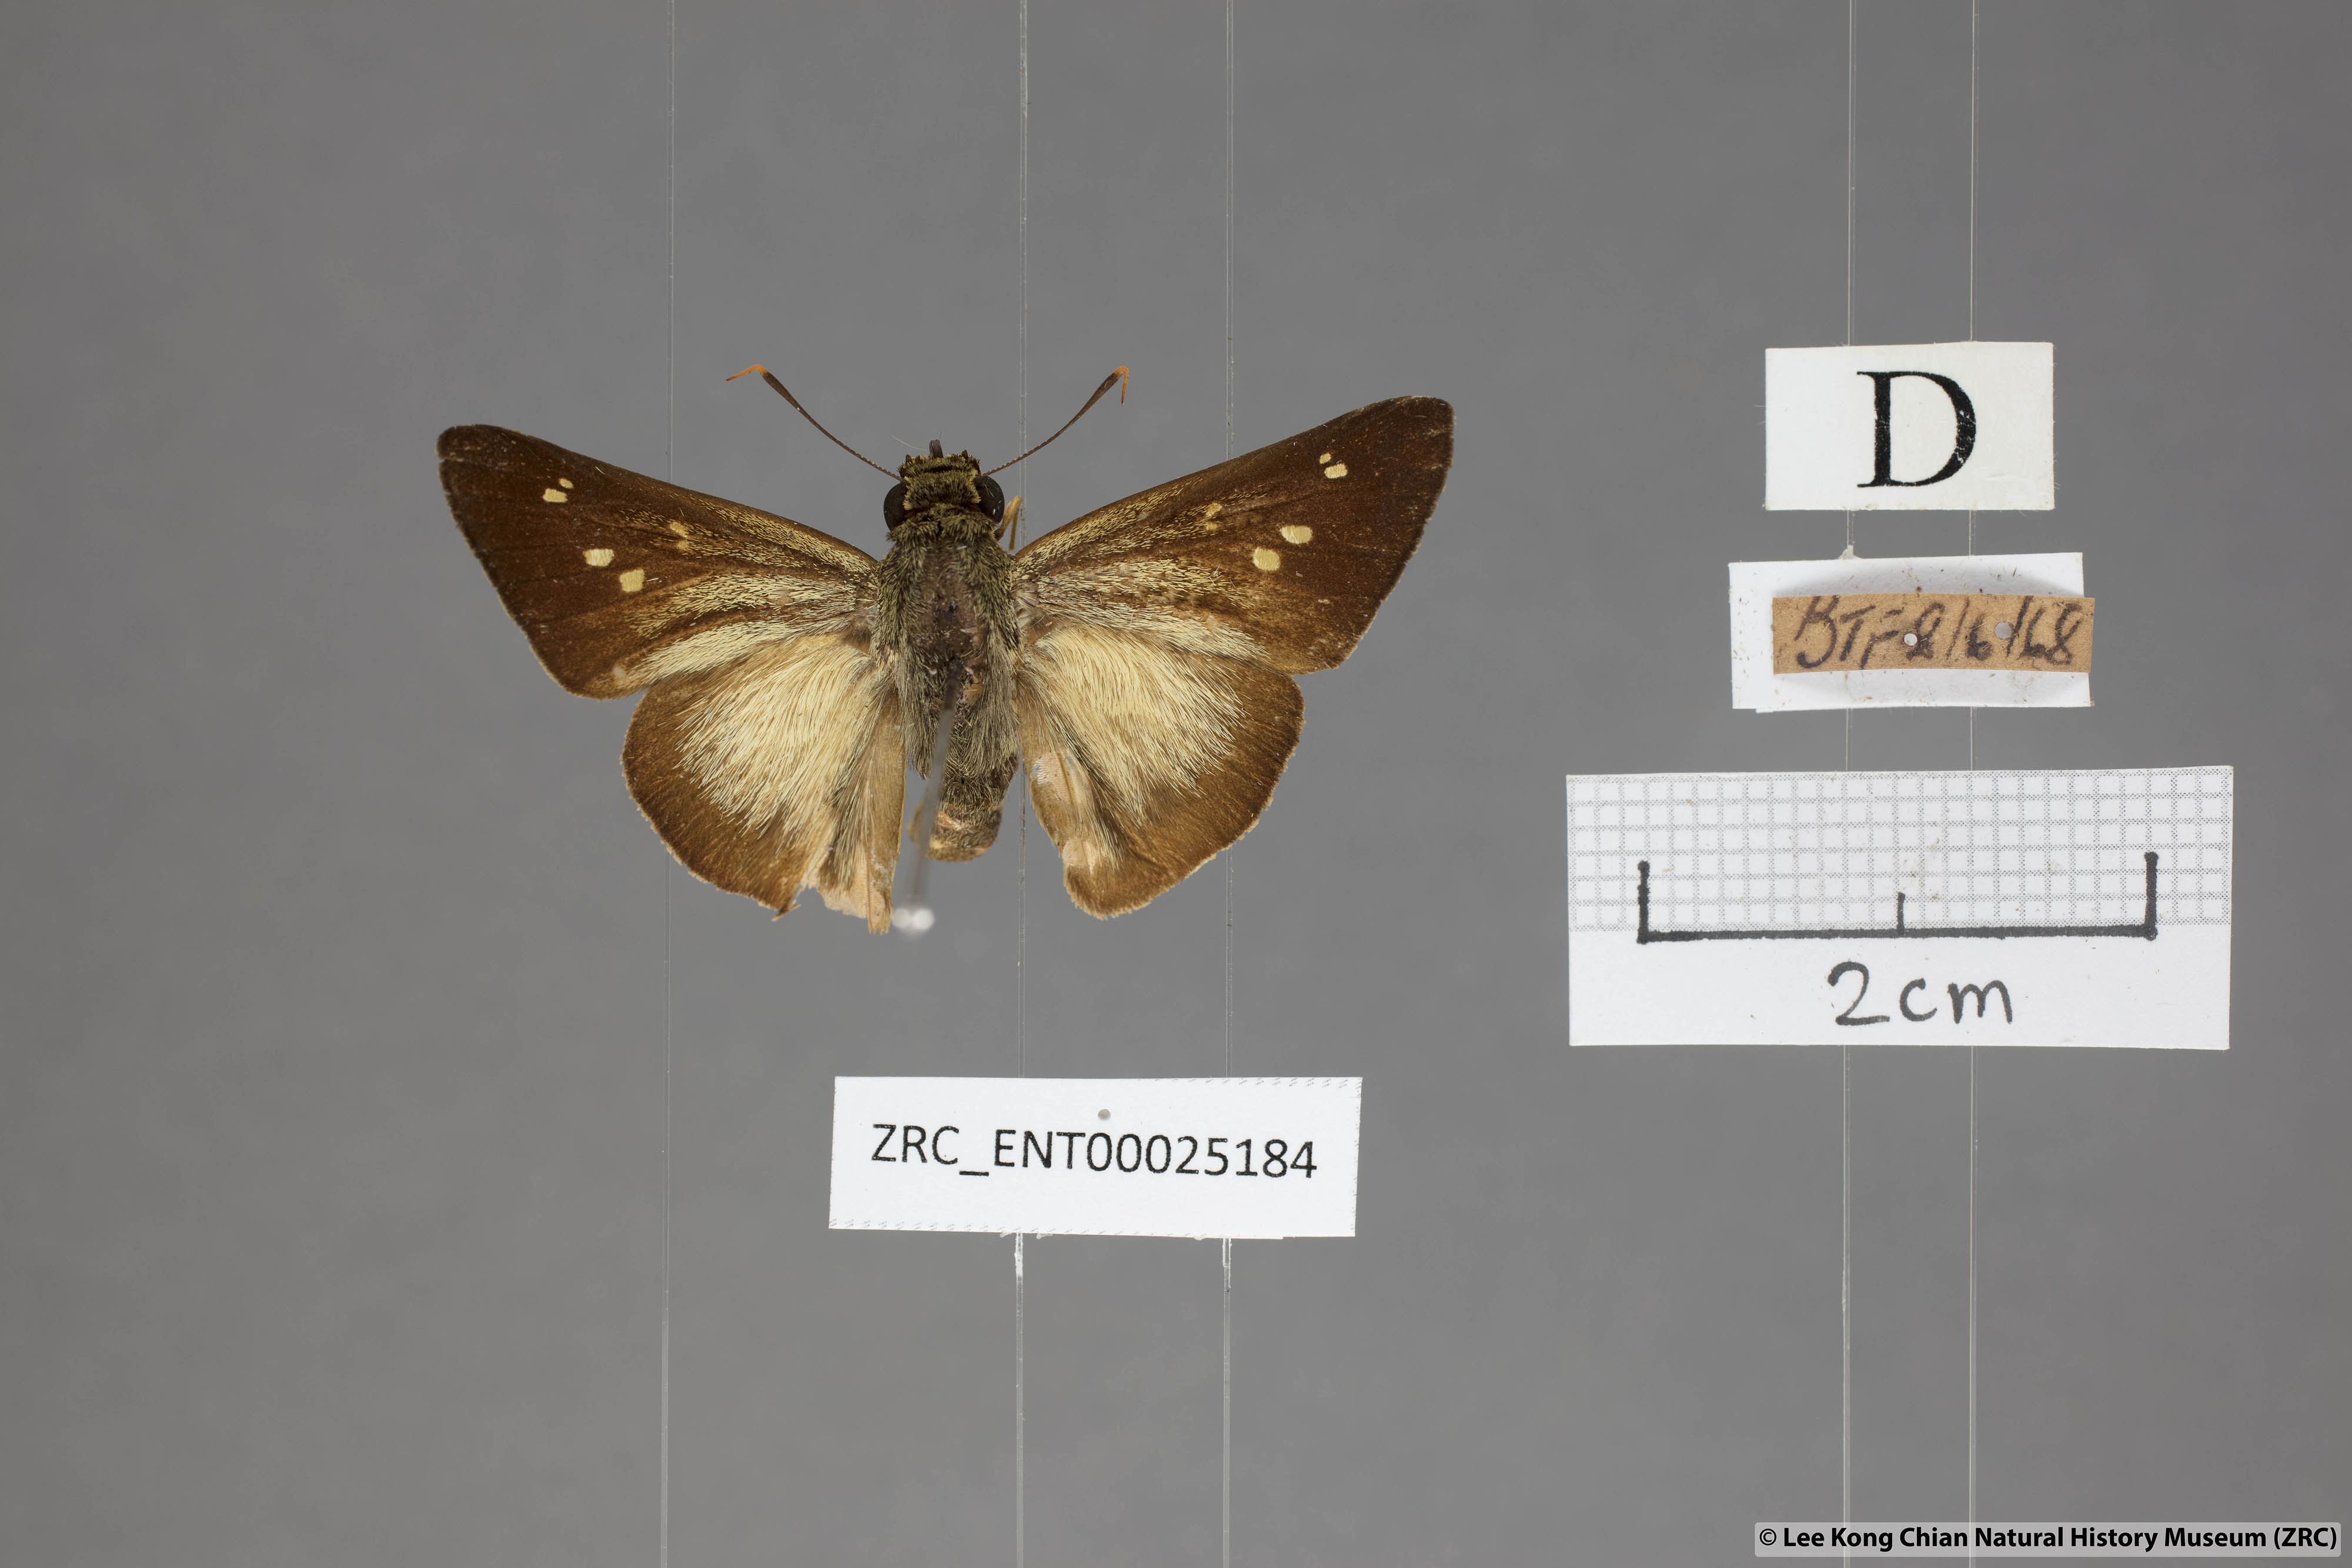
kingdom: Animalia
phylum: Arthropoda
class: Insecta
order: Lepidoptera
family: Hesperiidae
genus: Pithauria
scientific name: Pithauria stramineipennis
